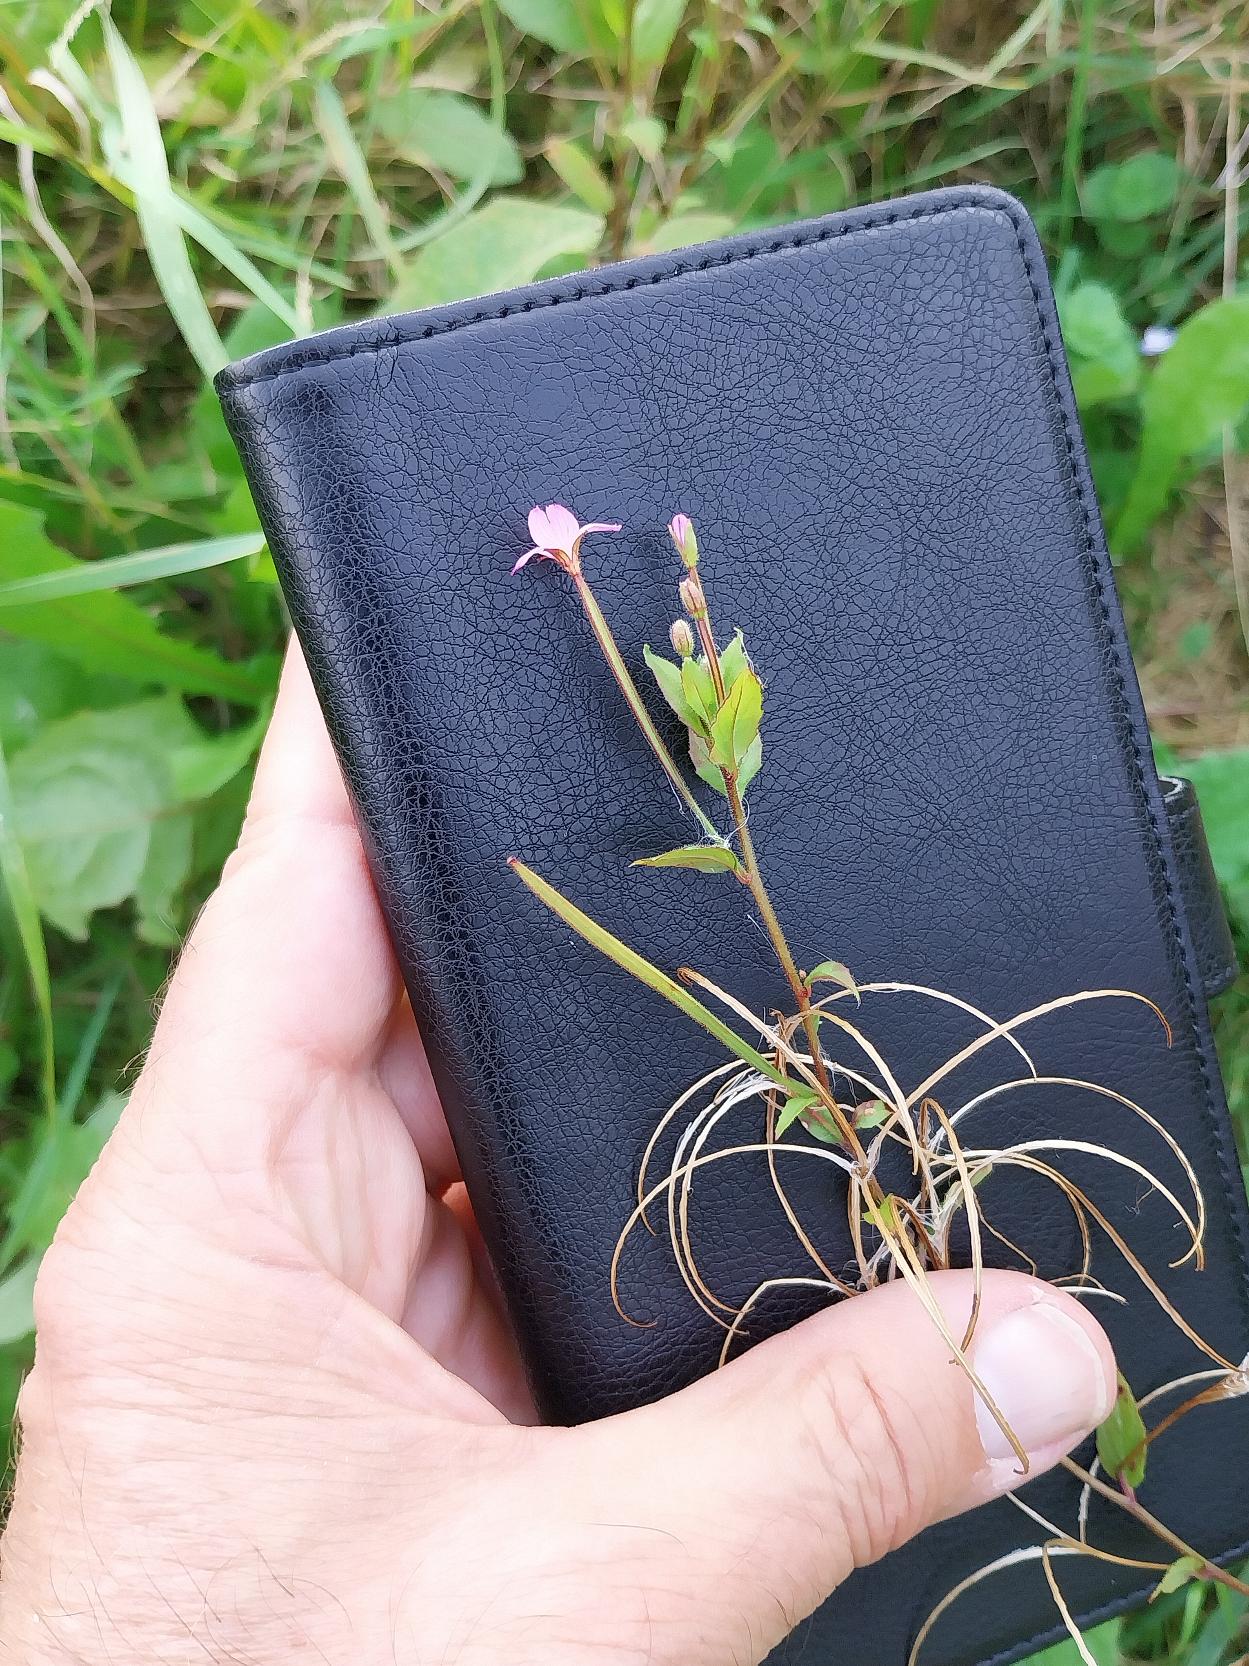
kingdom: Animalia
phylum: Arthropoda
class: Insecta
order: Hymenoptera
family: Megachilidae
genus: Epilobium
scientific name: Epilobium
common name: Kirtlet dueurt × dunet dueurt
